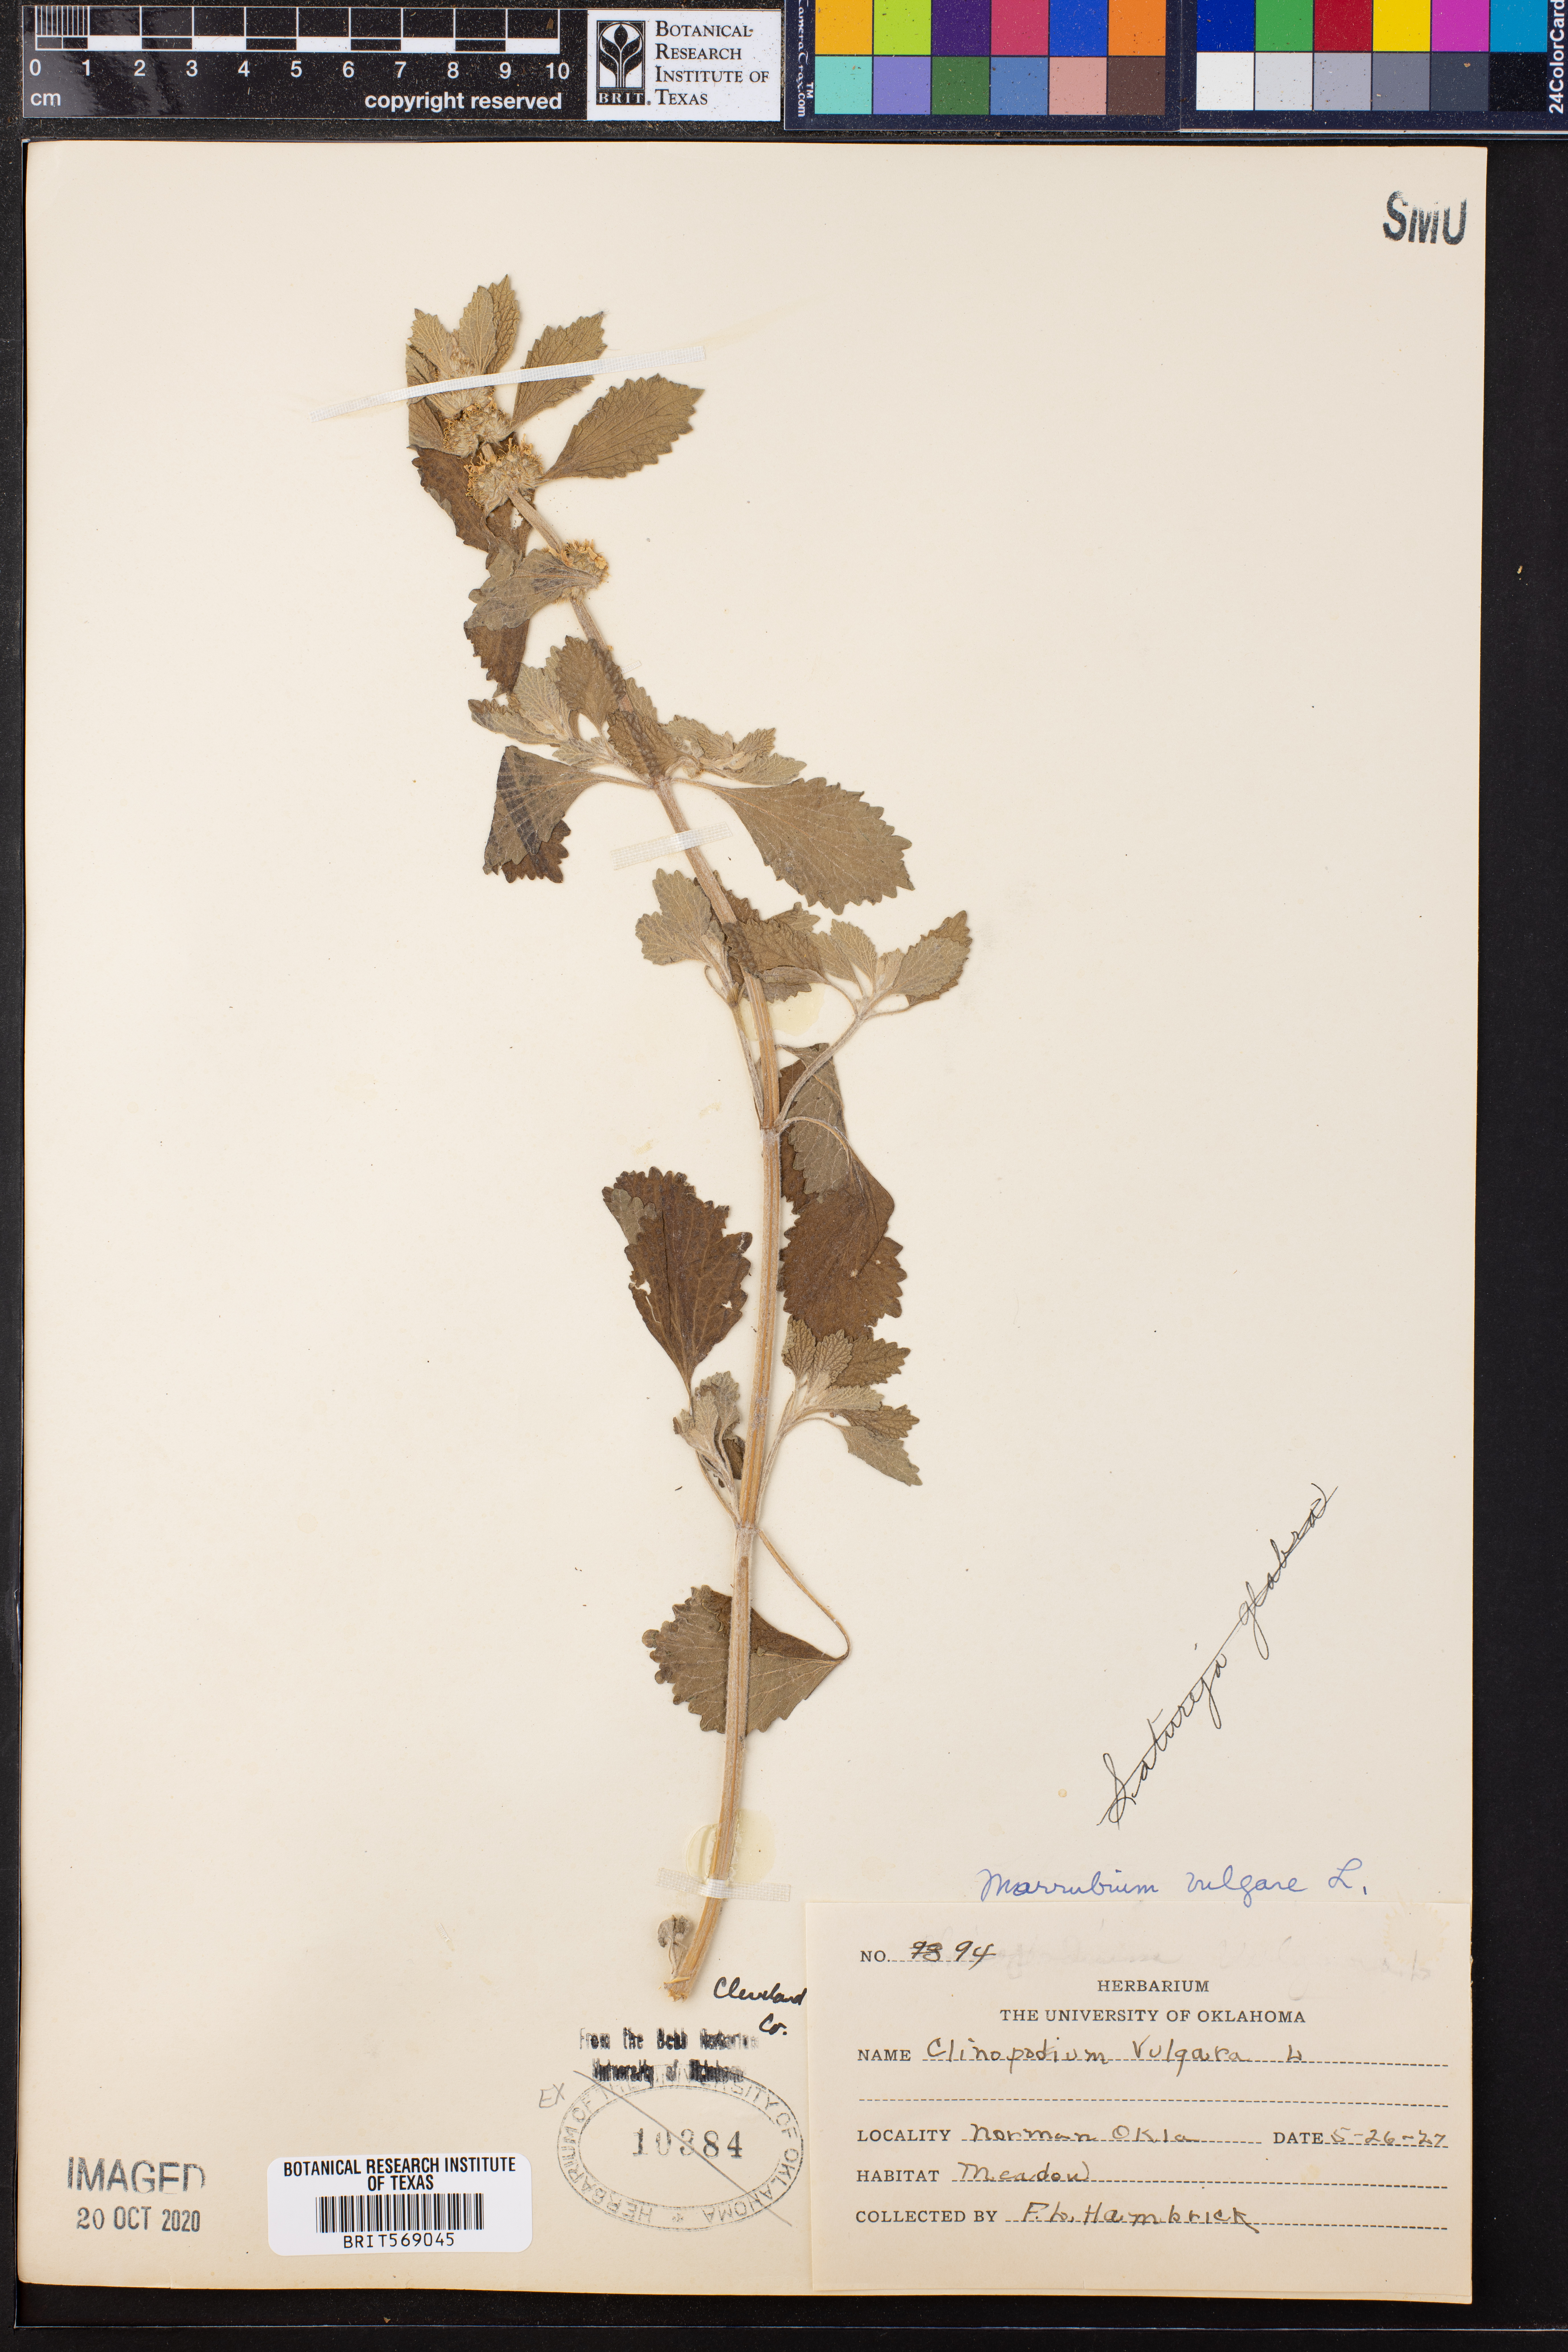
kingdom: Plantae
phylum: Tracheophyta
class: Magnoliopsida
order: Lamiales
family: Lamiaceae
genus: Marrubium
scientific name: Marrubium vulgare
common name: Horehound
